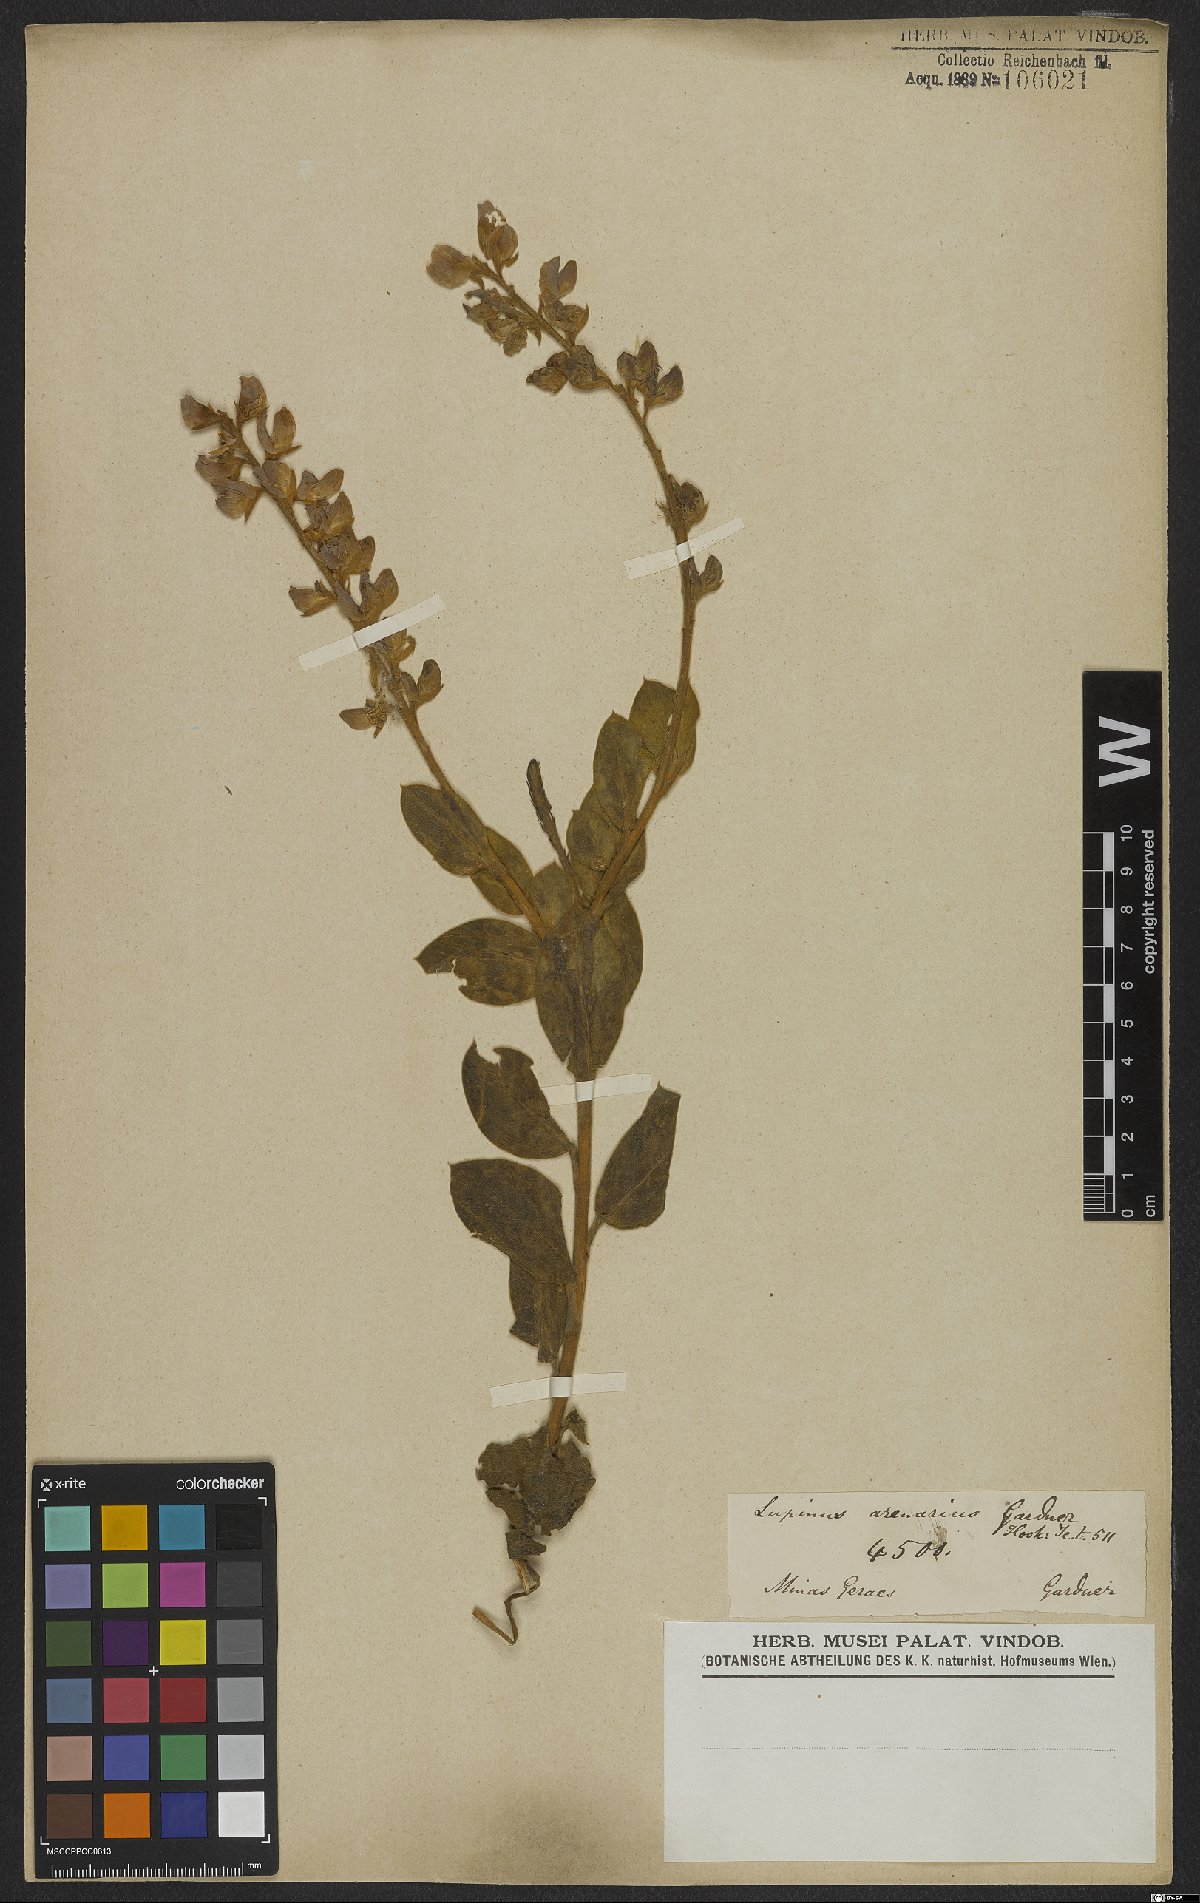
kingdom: Plantae
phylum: Tracheophyta
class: Magnoliopsida
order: Fabales
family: Fabaceae
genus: Lupinus
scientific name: Lupinus arenarius
